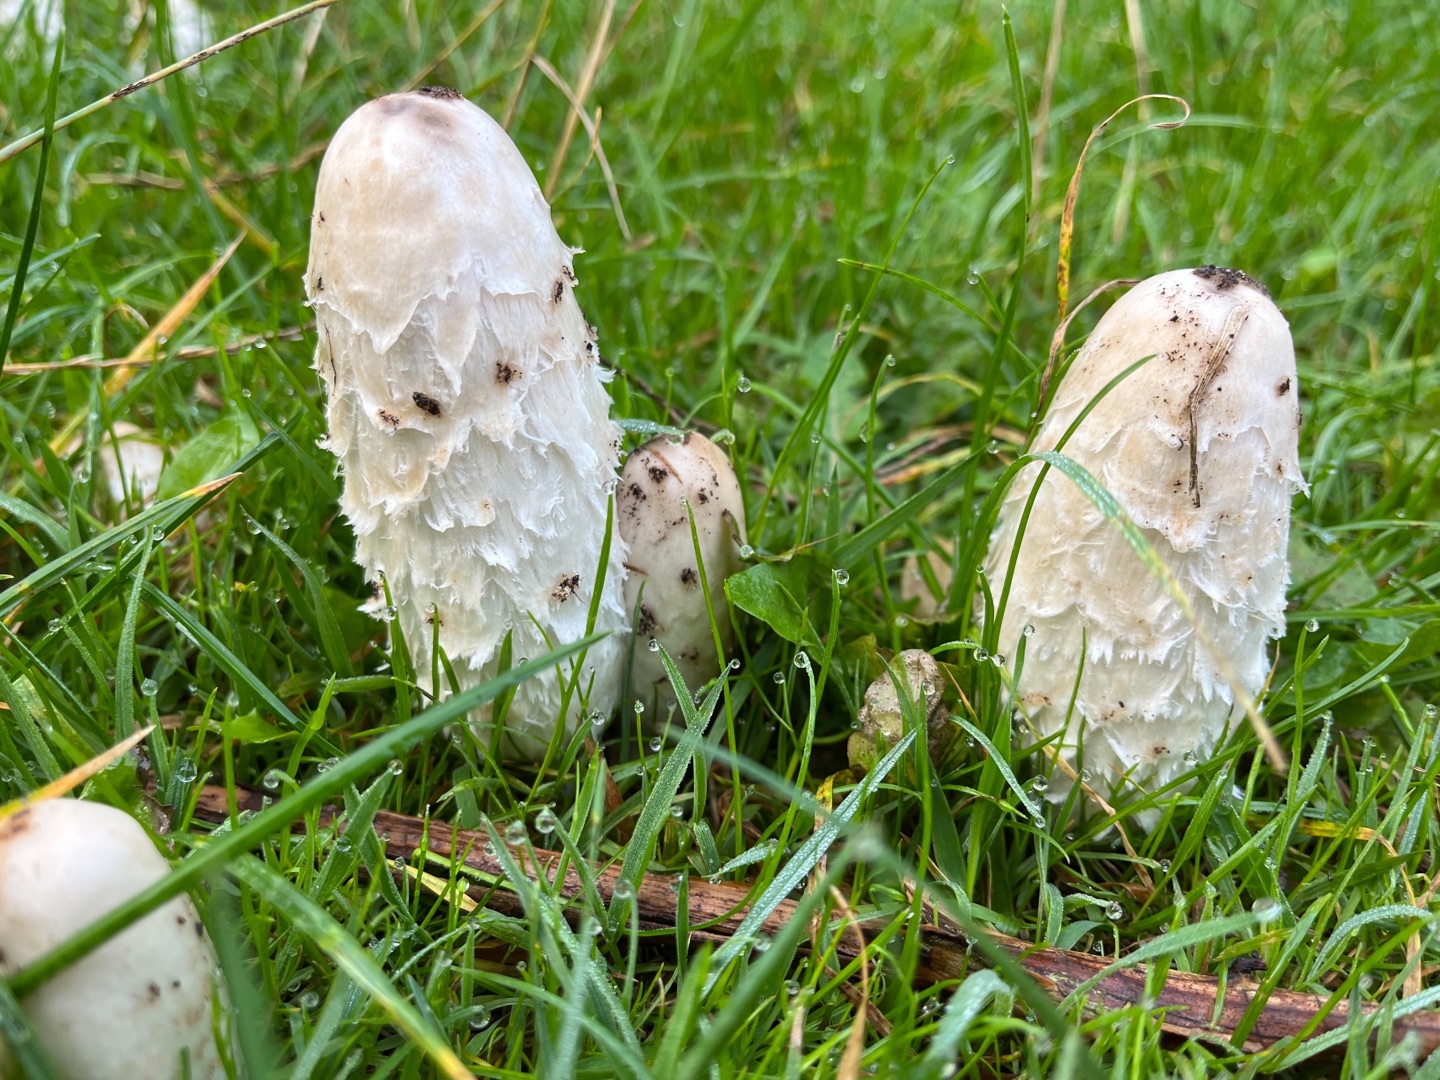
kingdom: Fungi
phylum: Basidiomycota
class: Agaricomycetes
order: Agaricales
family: Agaricaceae
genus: Coprinus
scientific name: Coprinus comatus
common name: Stor parykhat
